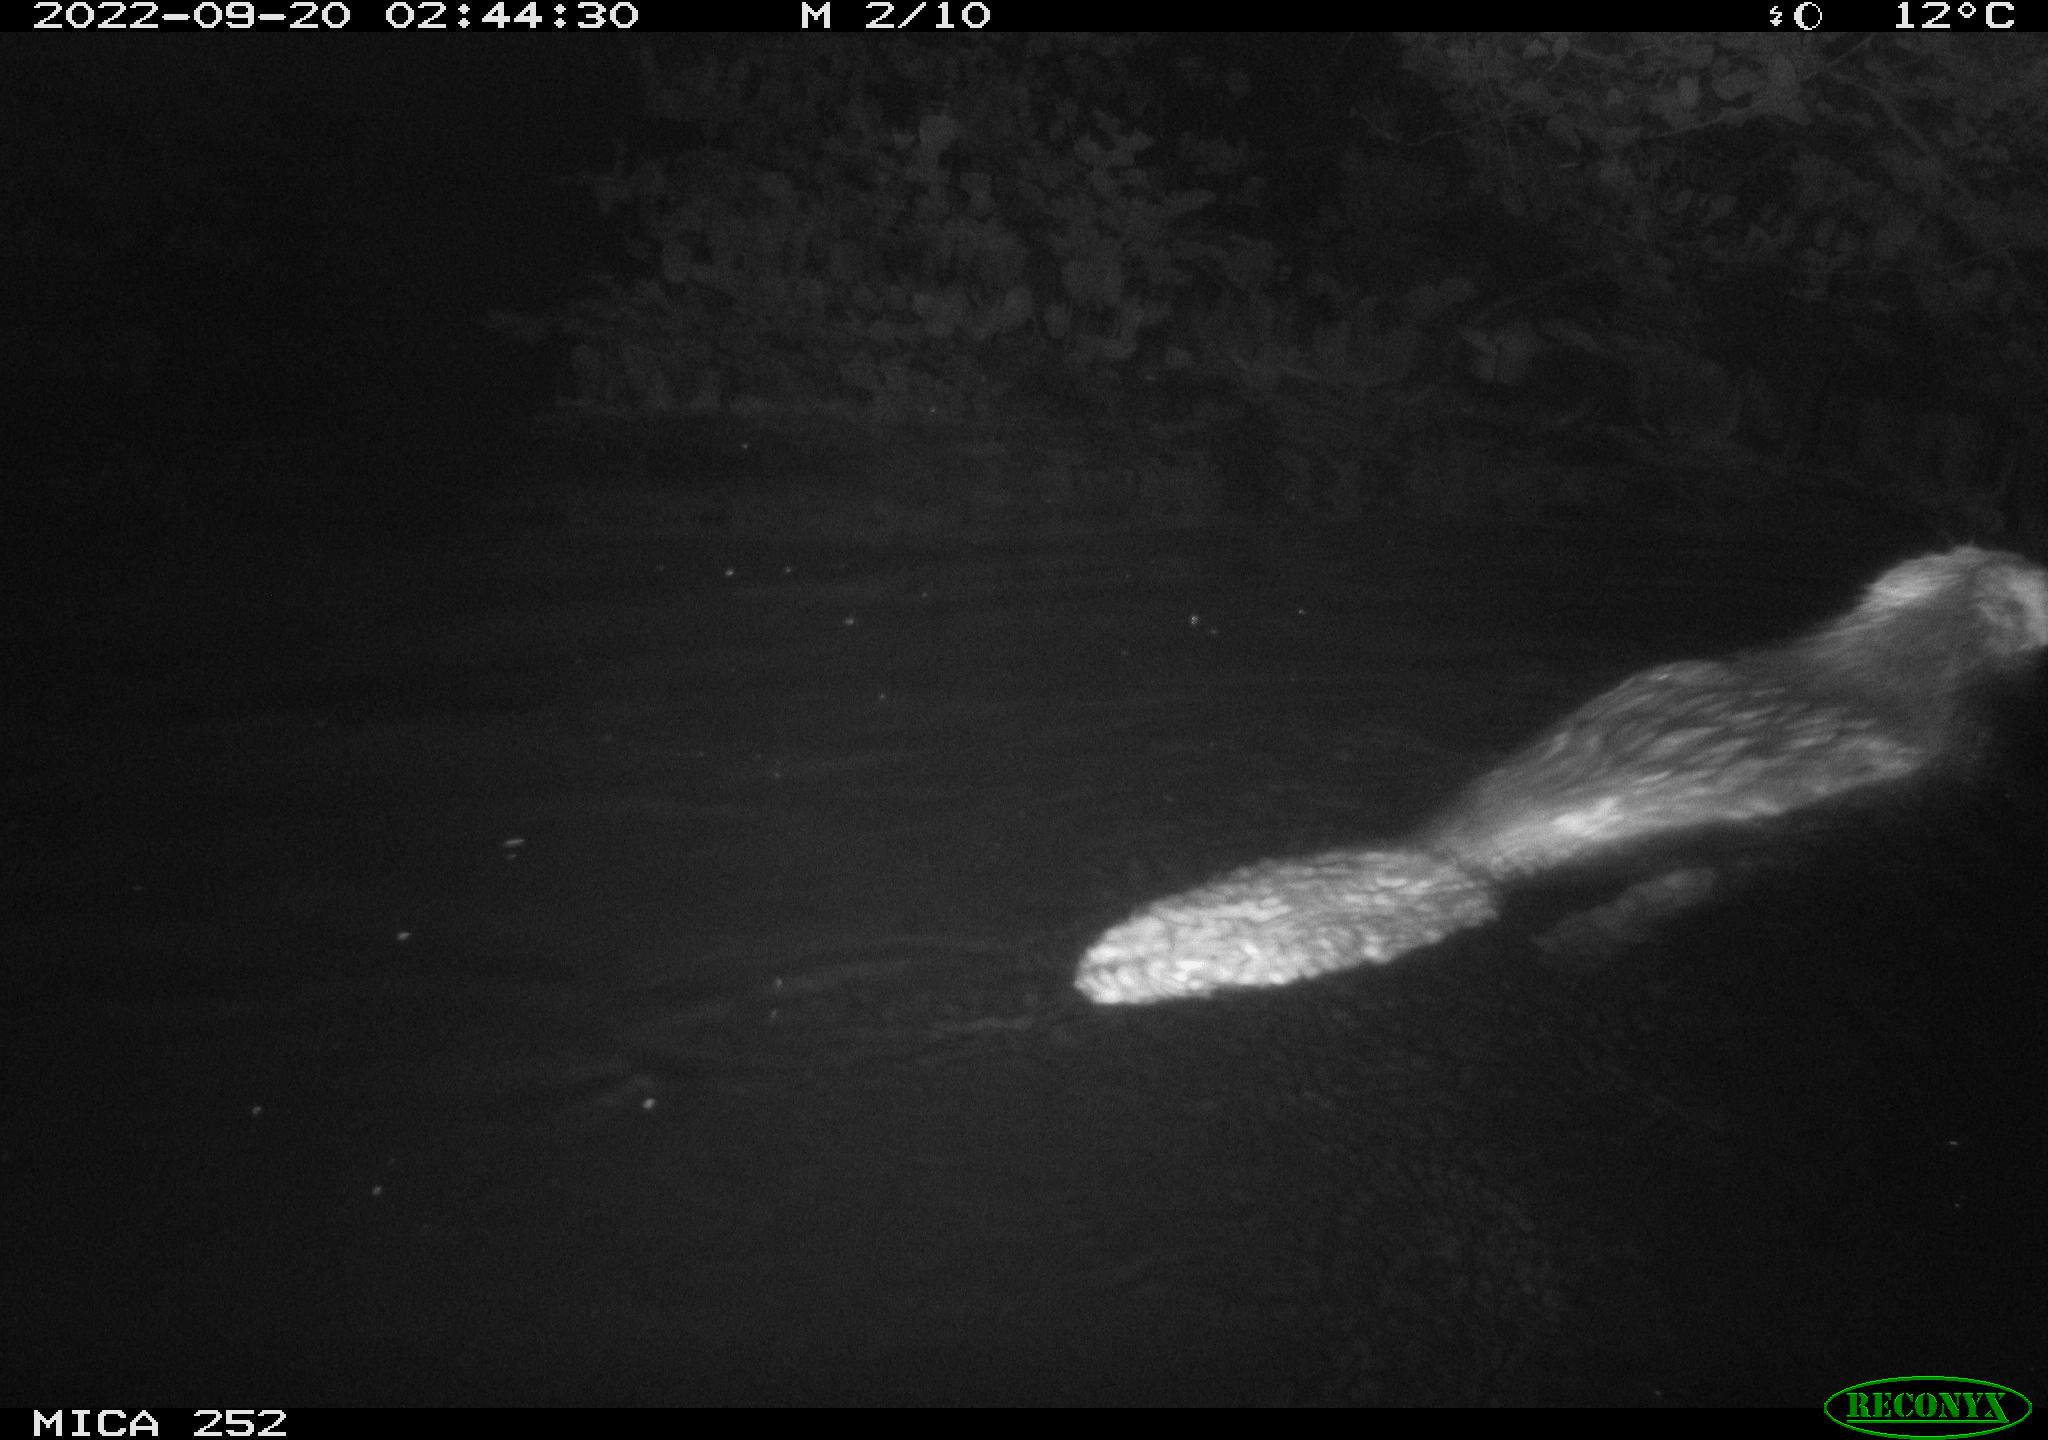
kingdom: Animalia
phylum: Chordata
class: Mammalia
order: Rodentia
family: Castoridae
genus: Castor
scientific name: Castor fiber
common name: Eurasian beaver
